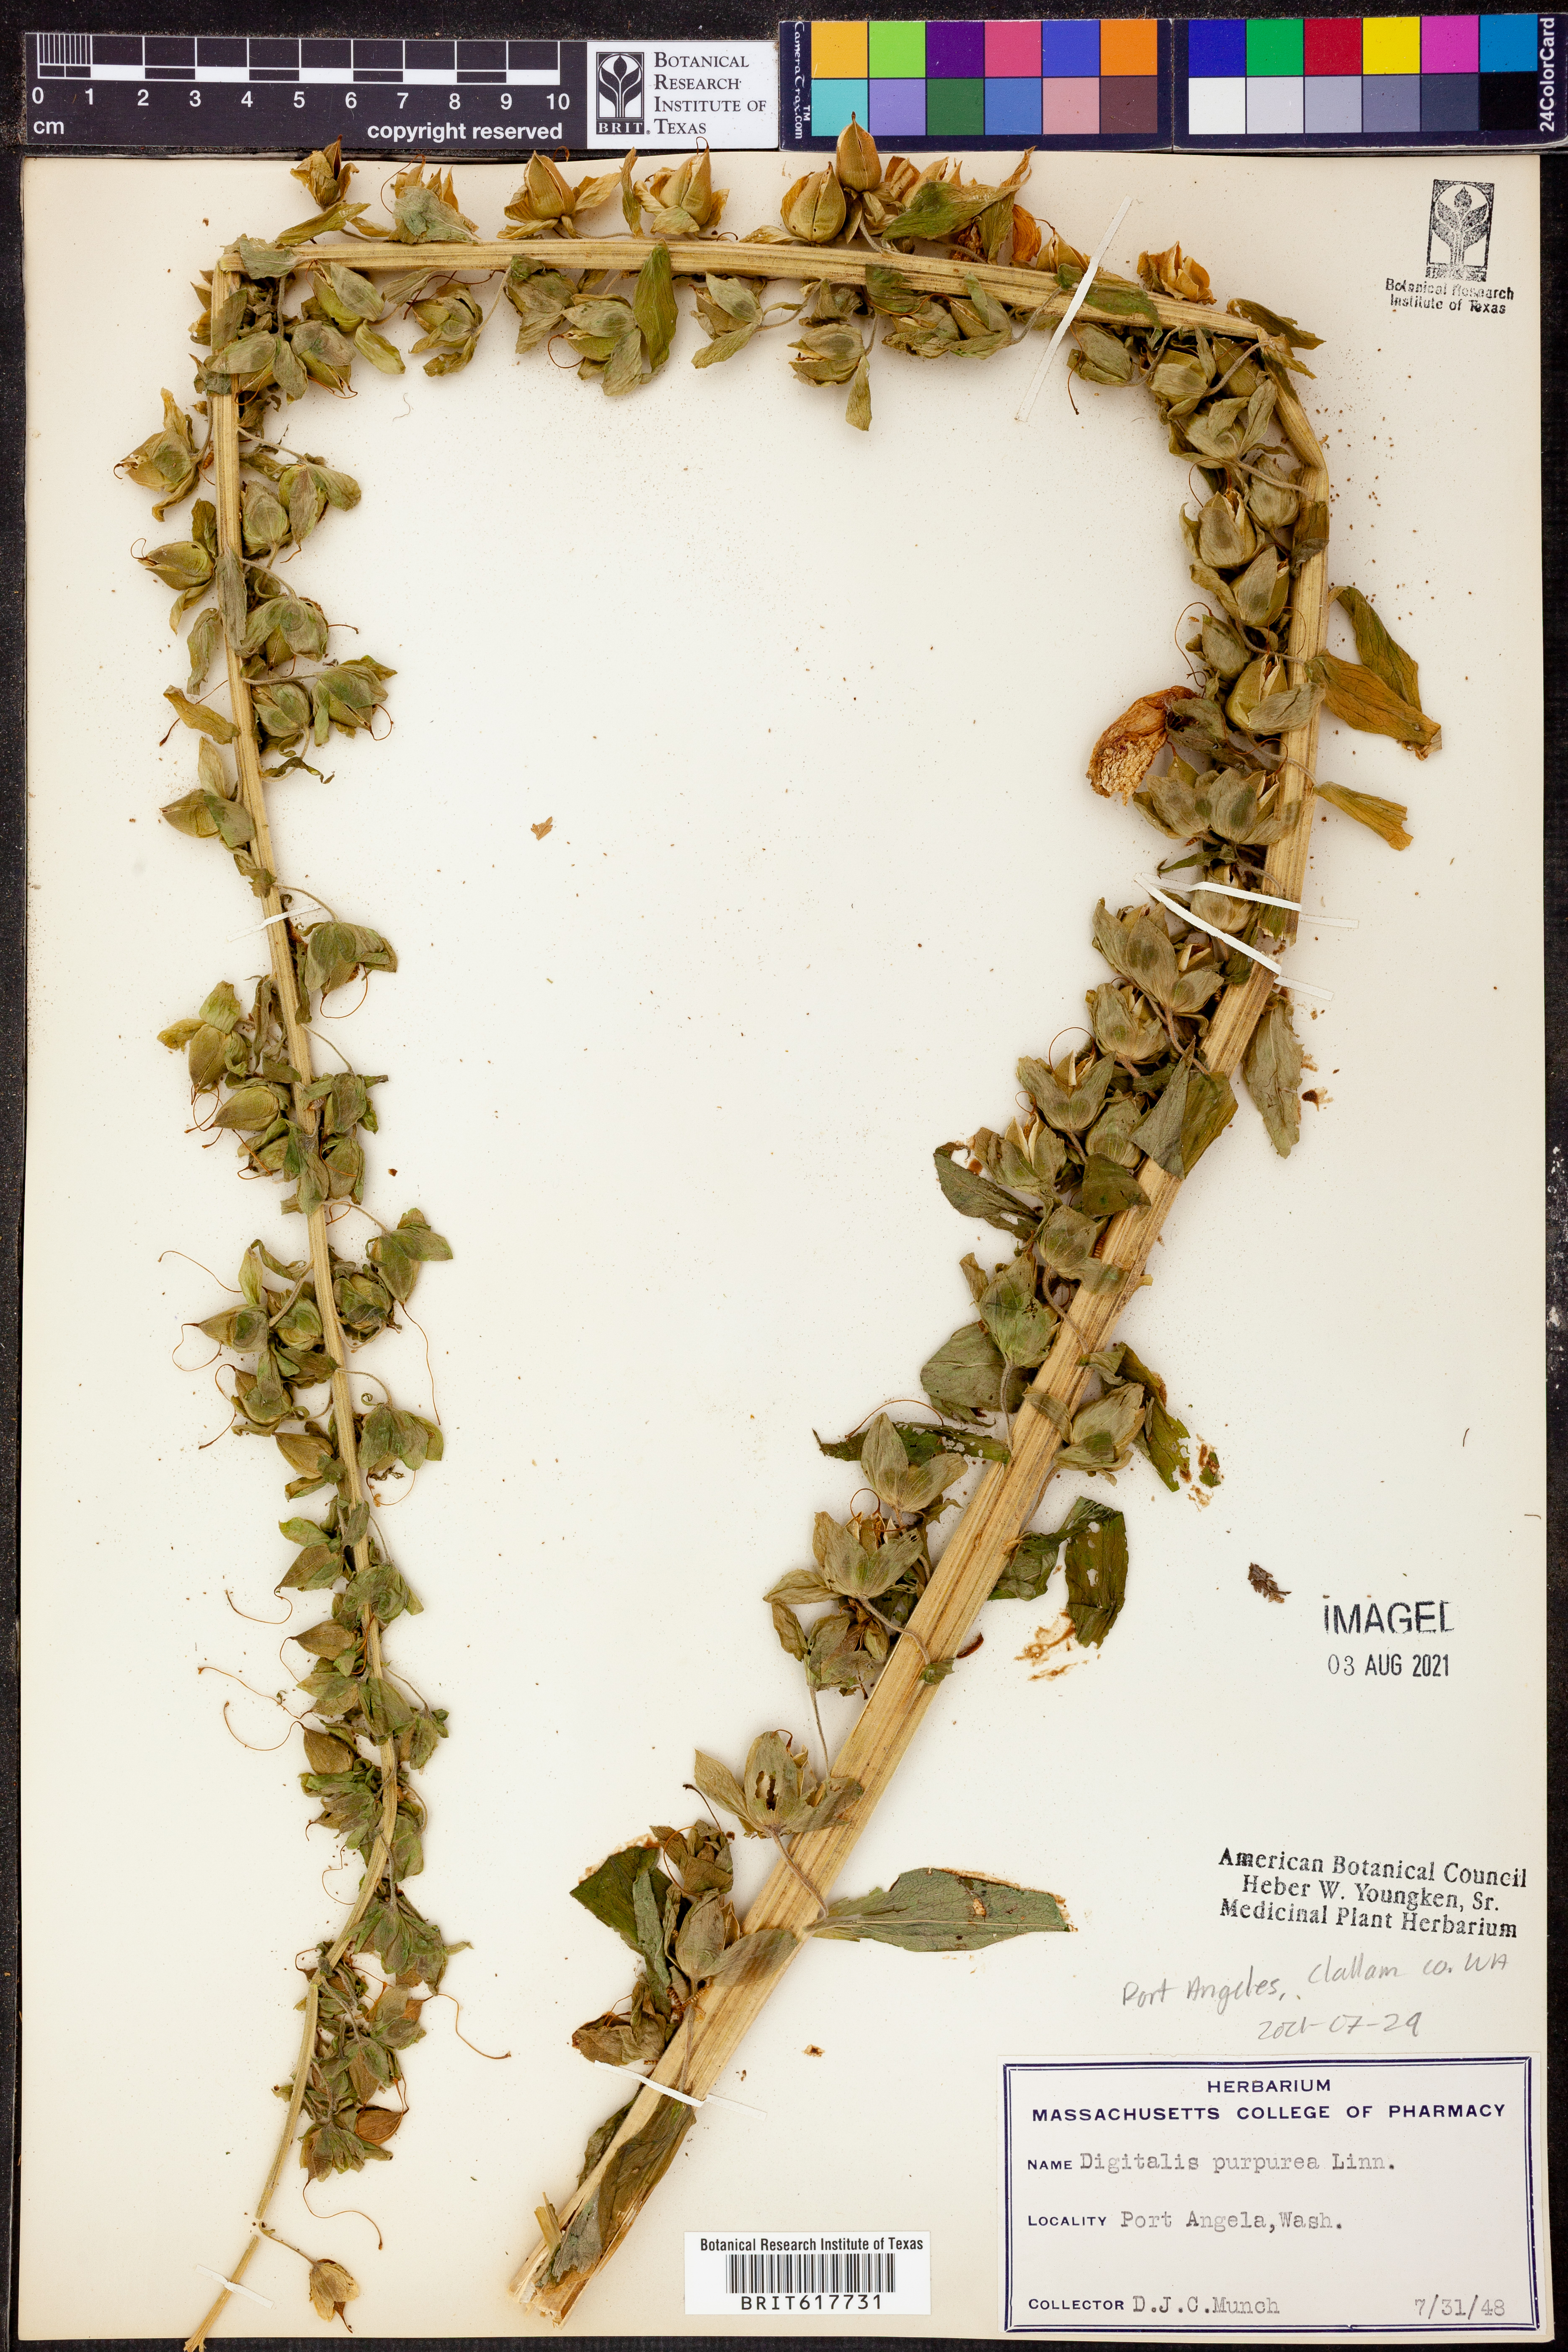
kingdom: Plantae
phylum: Tracheophyta
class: Magnoliopsida
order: Lamiales
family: Plantaginaceae
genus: Digitalis
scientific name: Digitalis purpurea
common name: Foxglove
